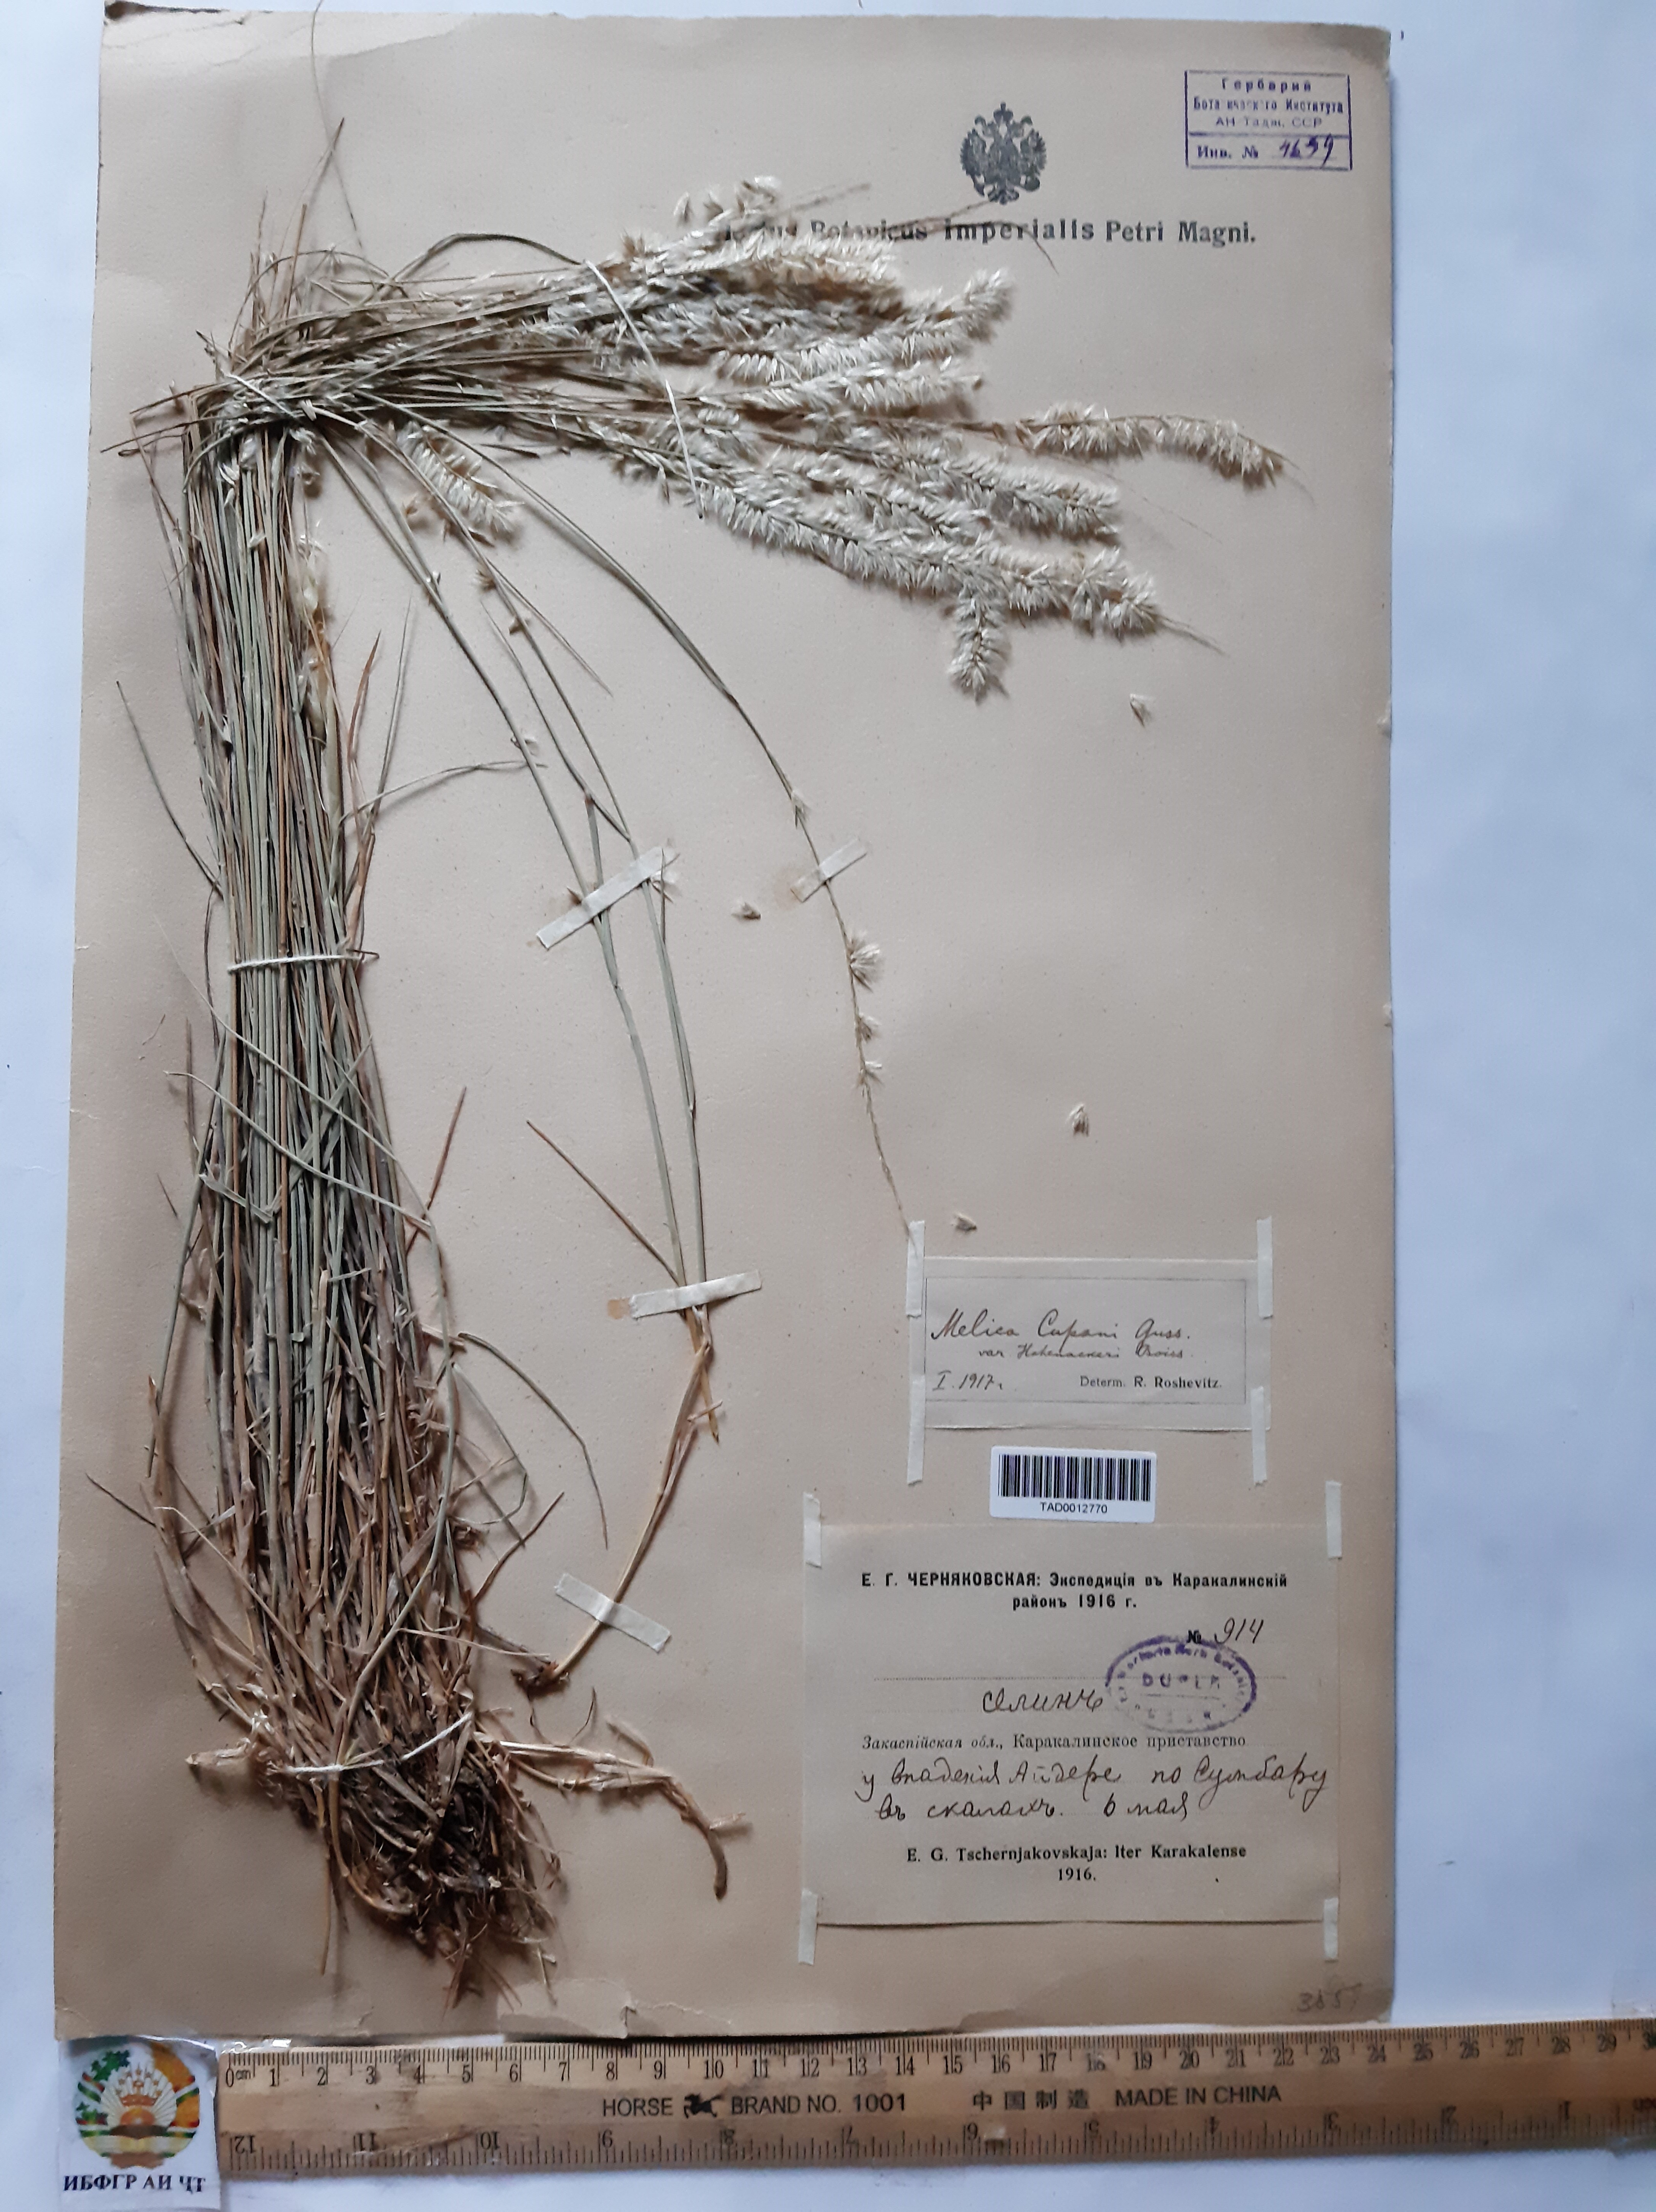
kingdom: Plantae
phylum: Tracheophyta
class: Liliopsida
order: Poales
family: Poaceae
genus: Melica
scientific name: Melica persica
